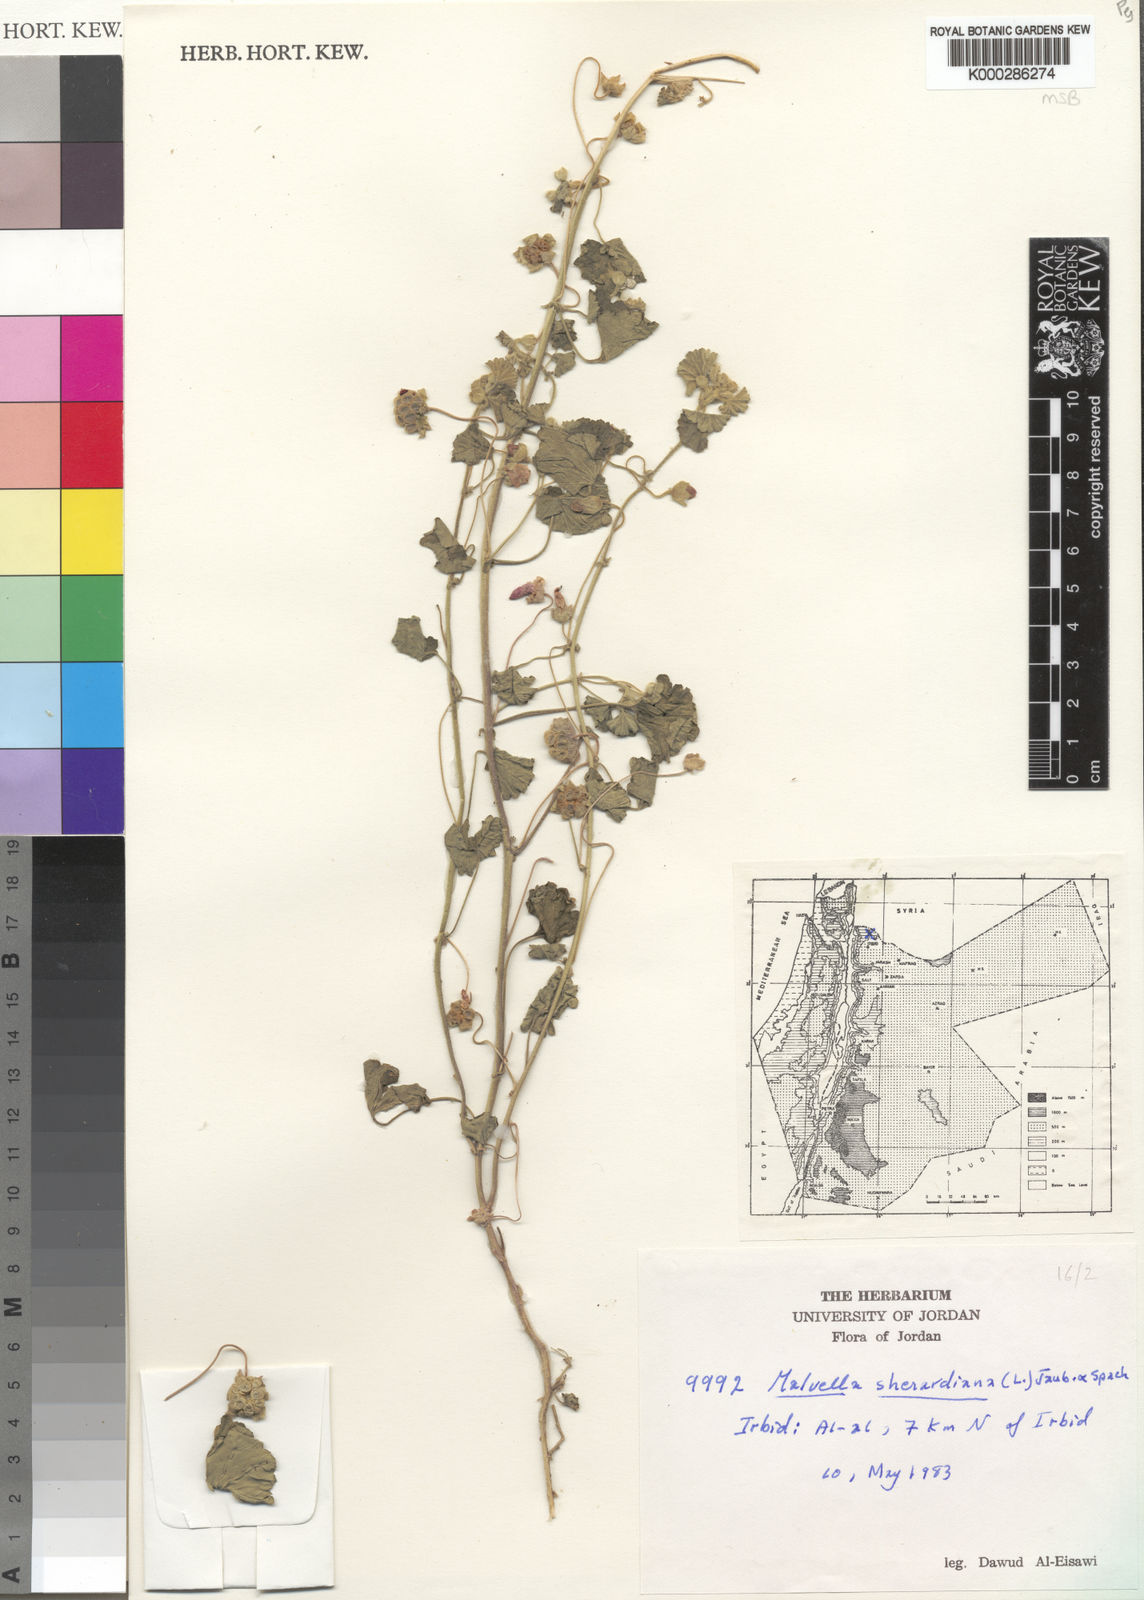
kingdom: Plantae
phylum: Tracheophyta
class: Magnoliopsida
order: Malvales
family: Malvaceae
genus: Malvella
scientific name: Malvella sherardiana
